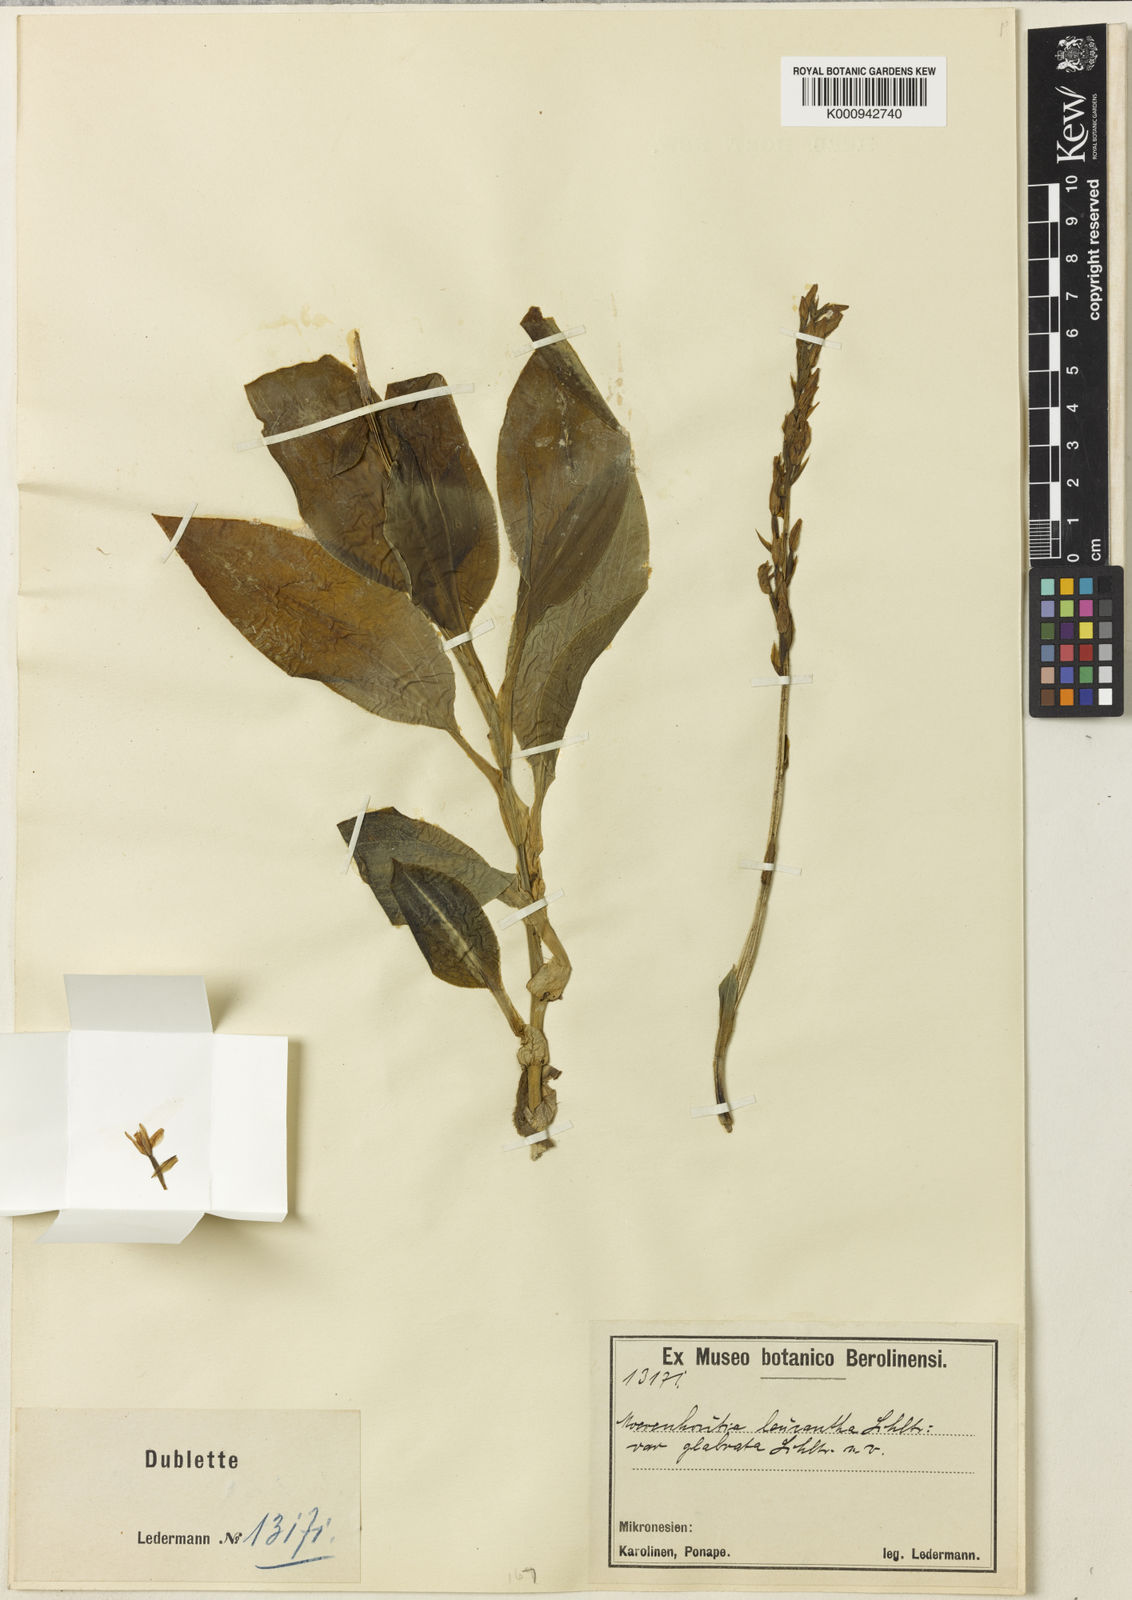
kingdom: Plantae
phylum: Tracheophyta
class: Liliopsida
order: Poales
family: Cyperaceae
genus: Cyperus
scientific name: Cyperus brasiliensis
